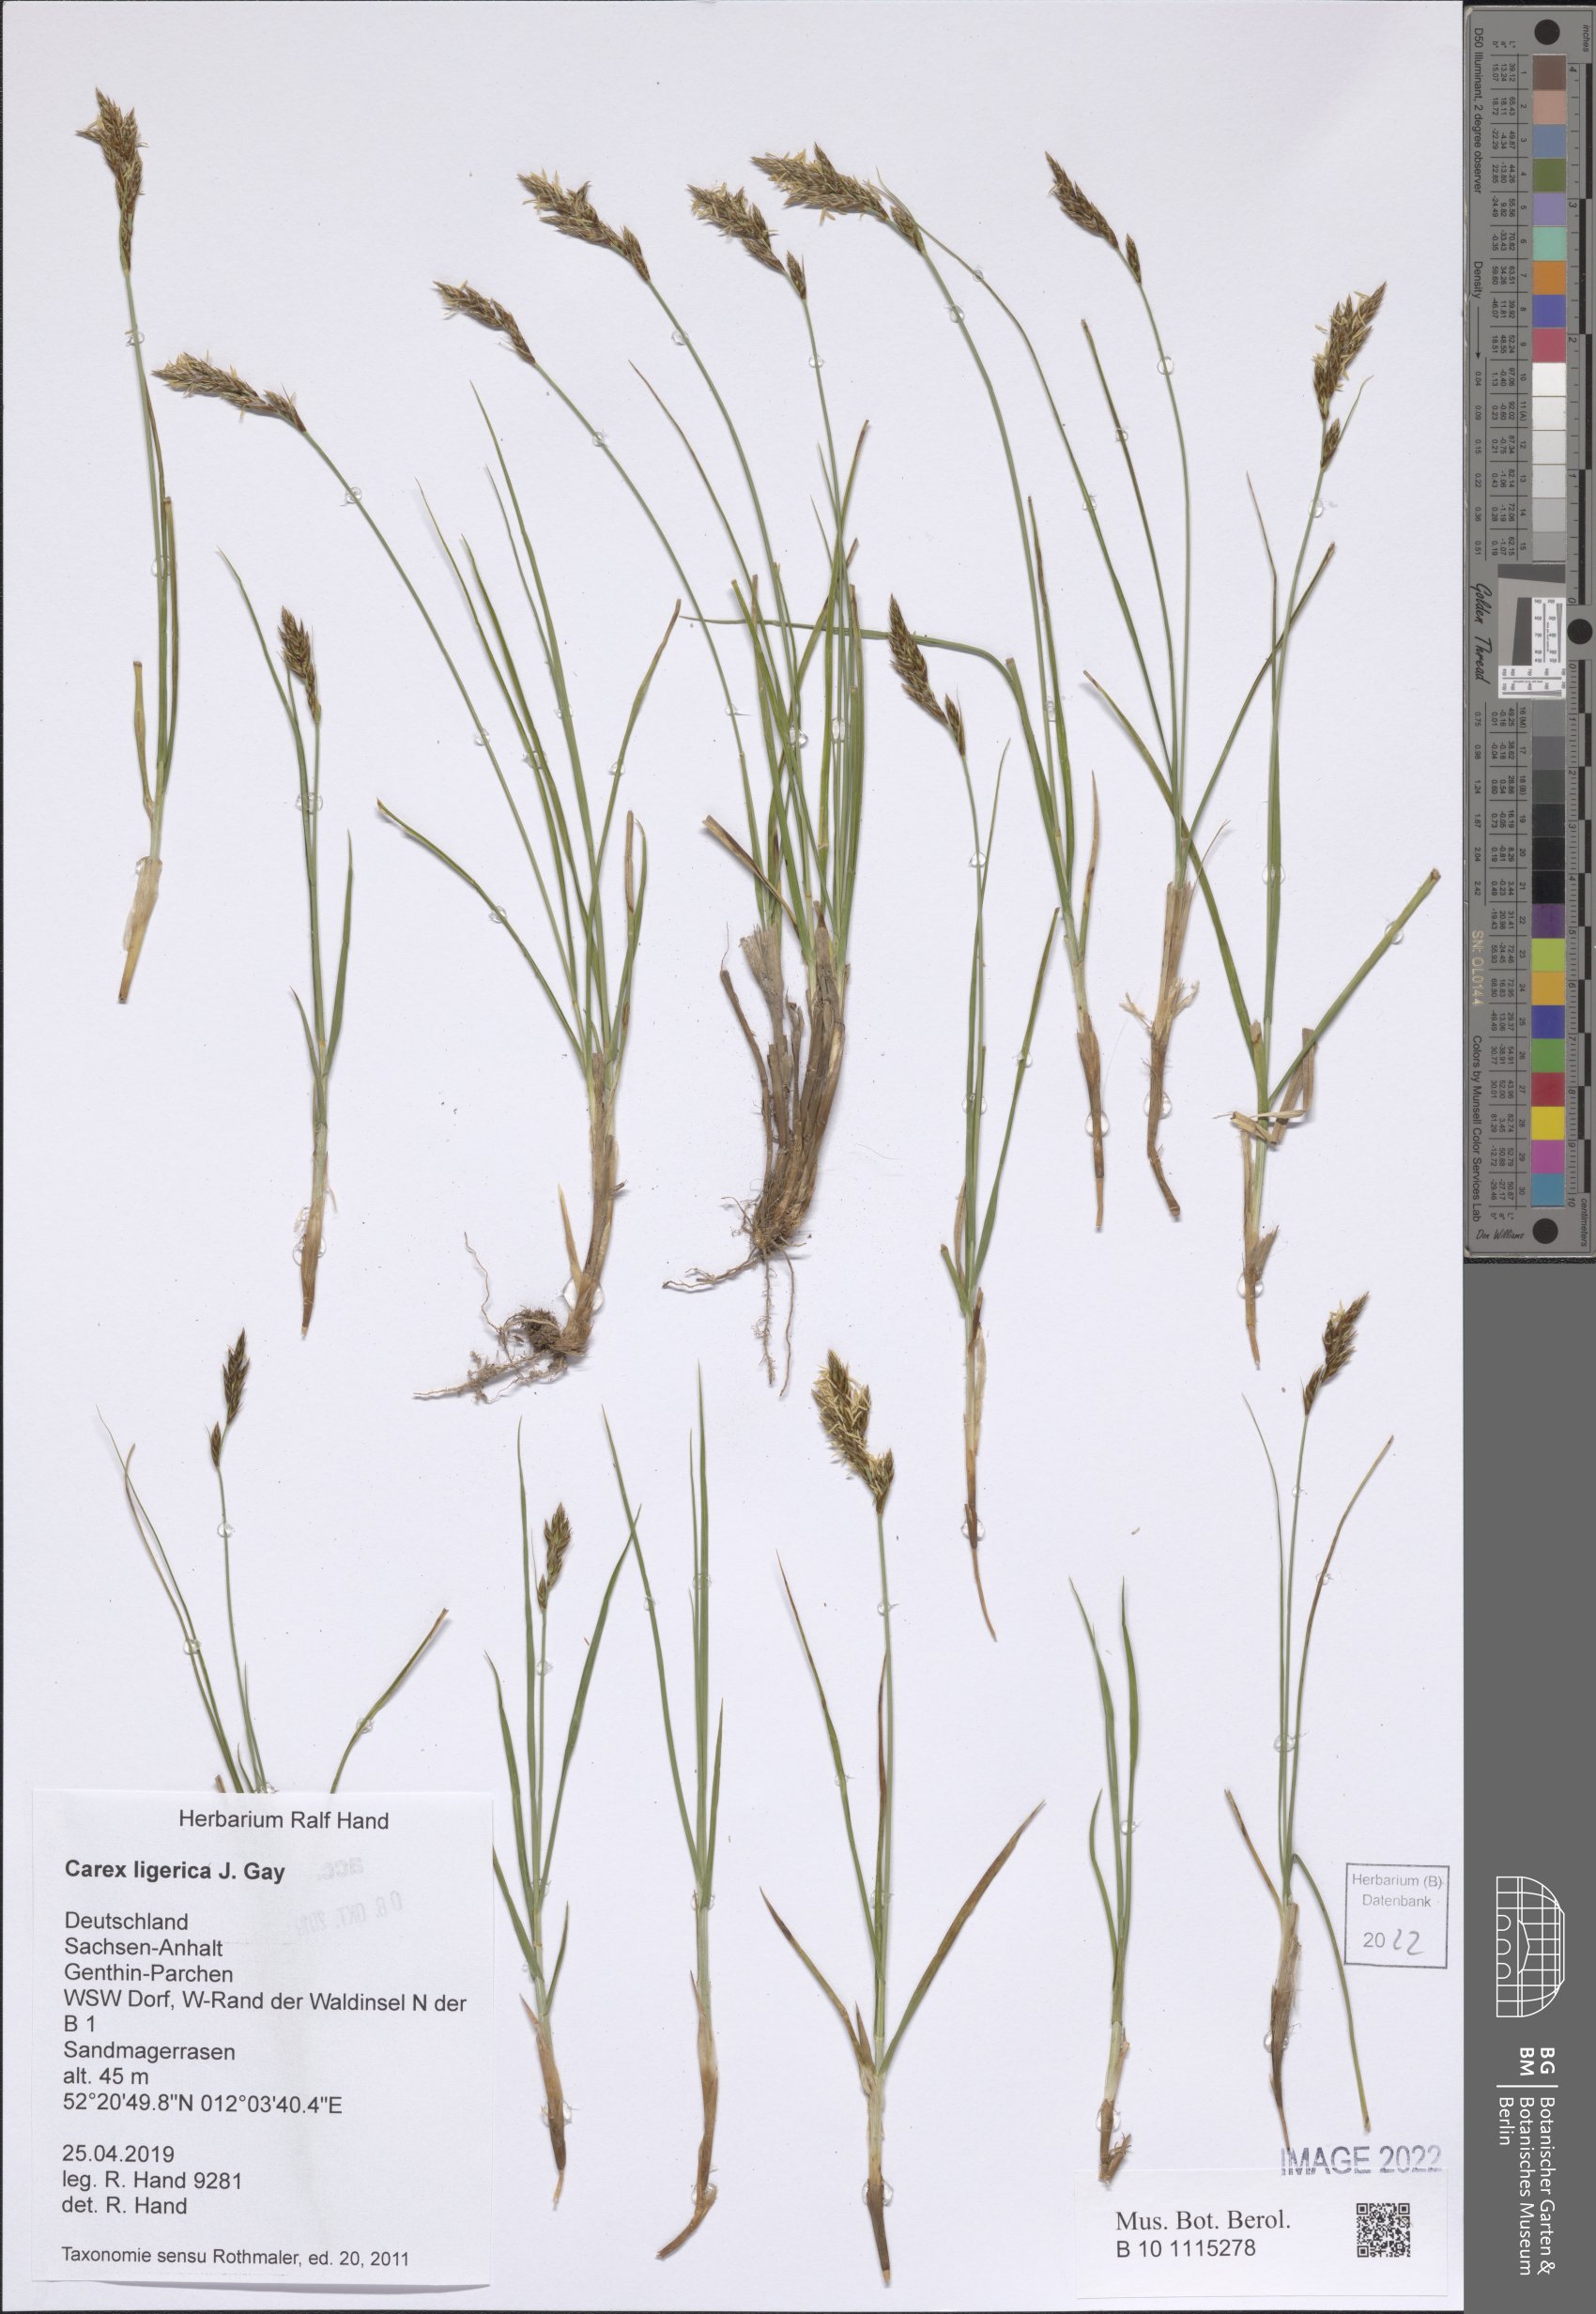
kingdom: Plantae
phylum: Tracheophyta
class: Liliopsida
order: Poales
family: Cyperaceae
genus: Carex
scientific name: Carex colchica
